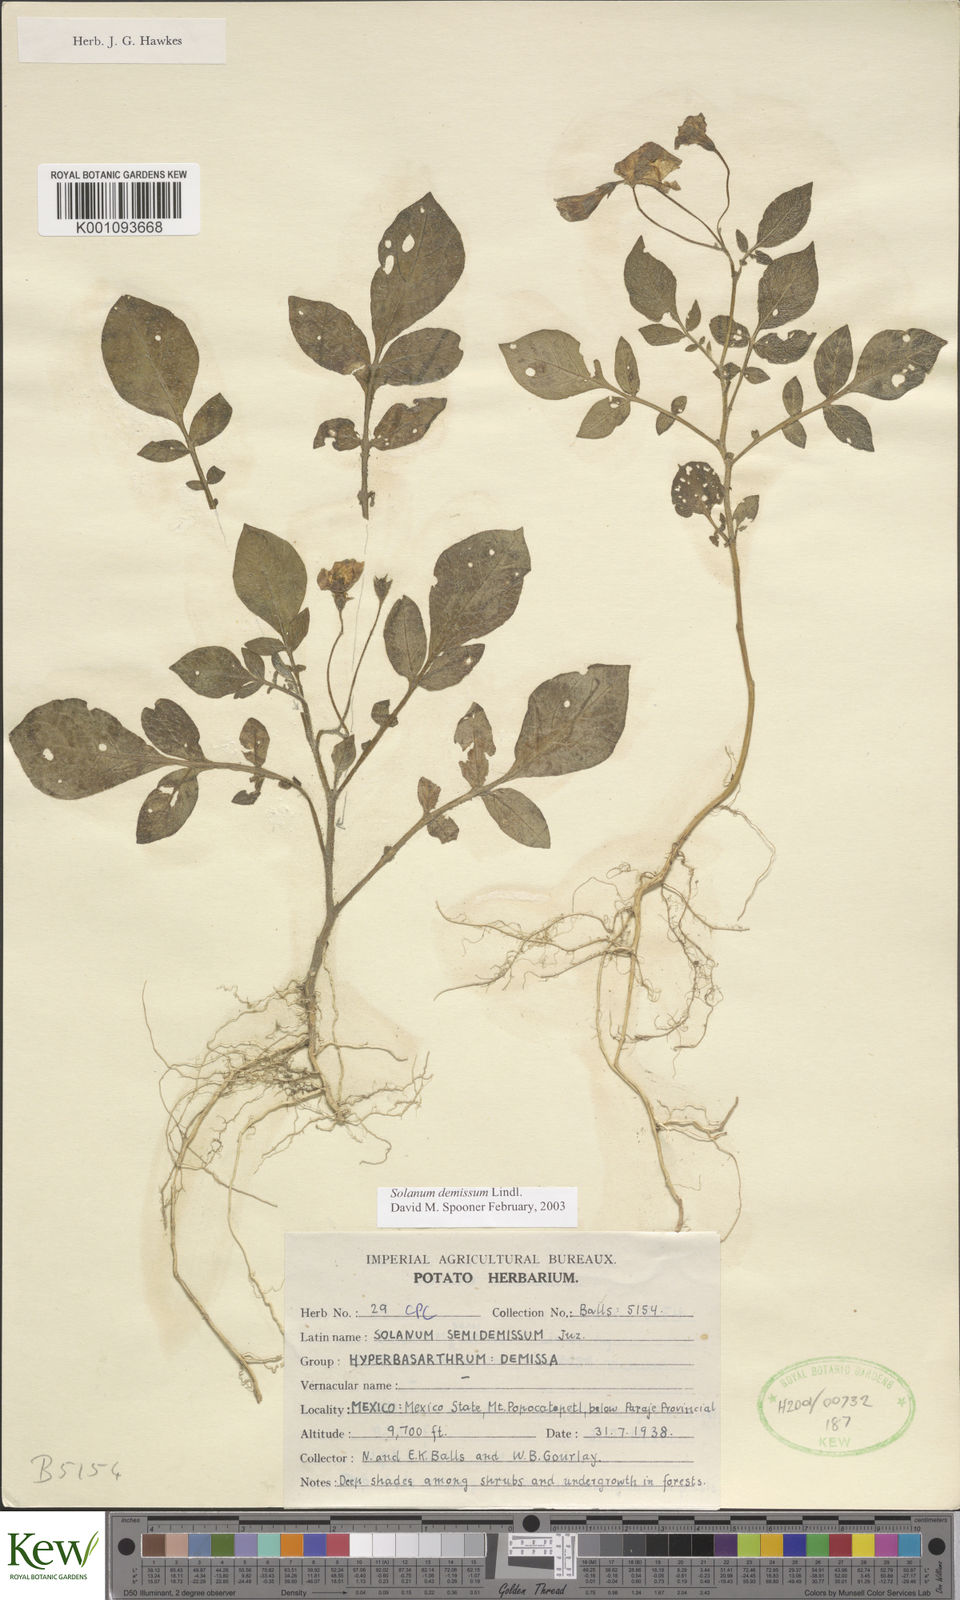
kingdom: Plantae
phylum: Tracheophyta
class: Magnoliopsida
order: Solanales
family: Solanaceae
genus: Solanum
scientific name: Solanum demissum
